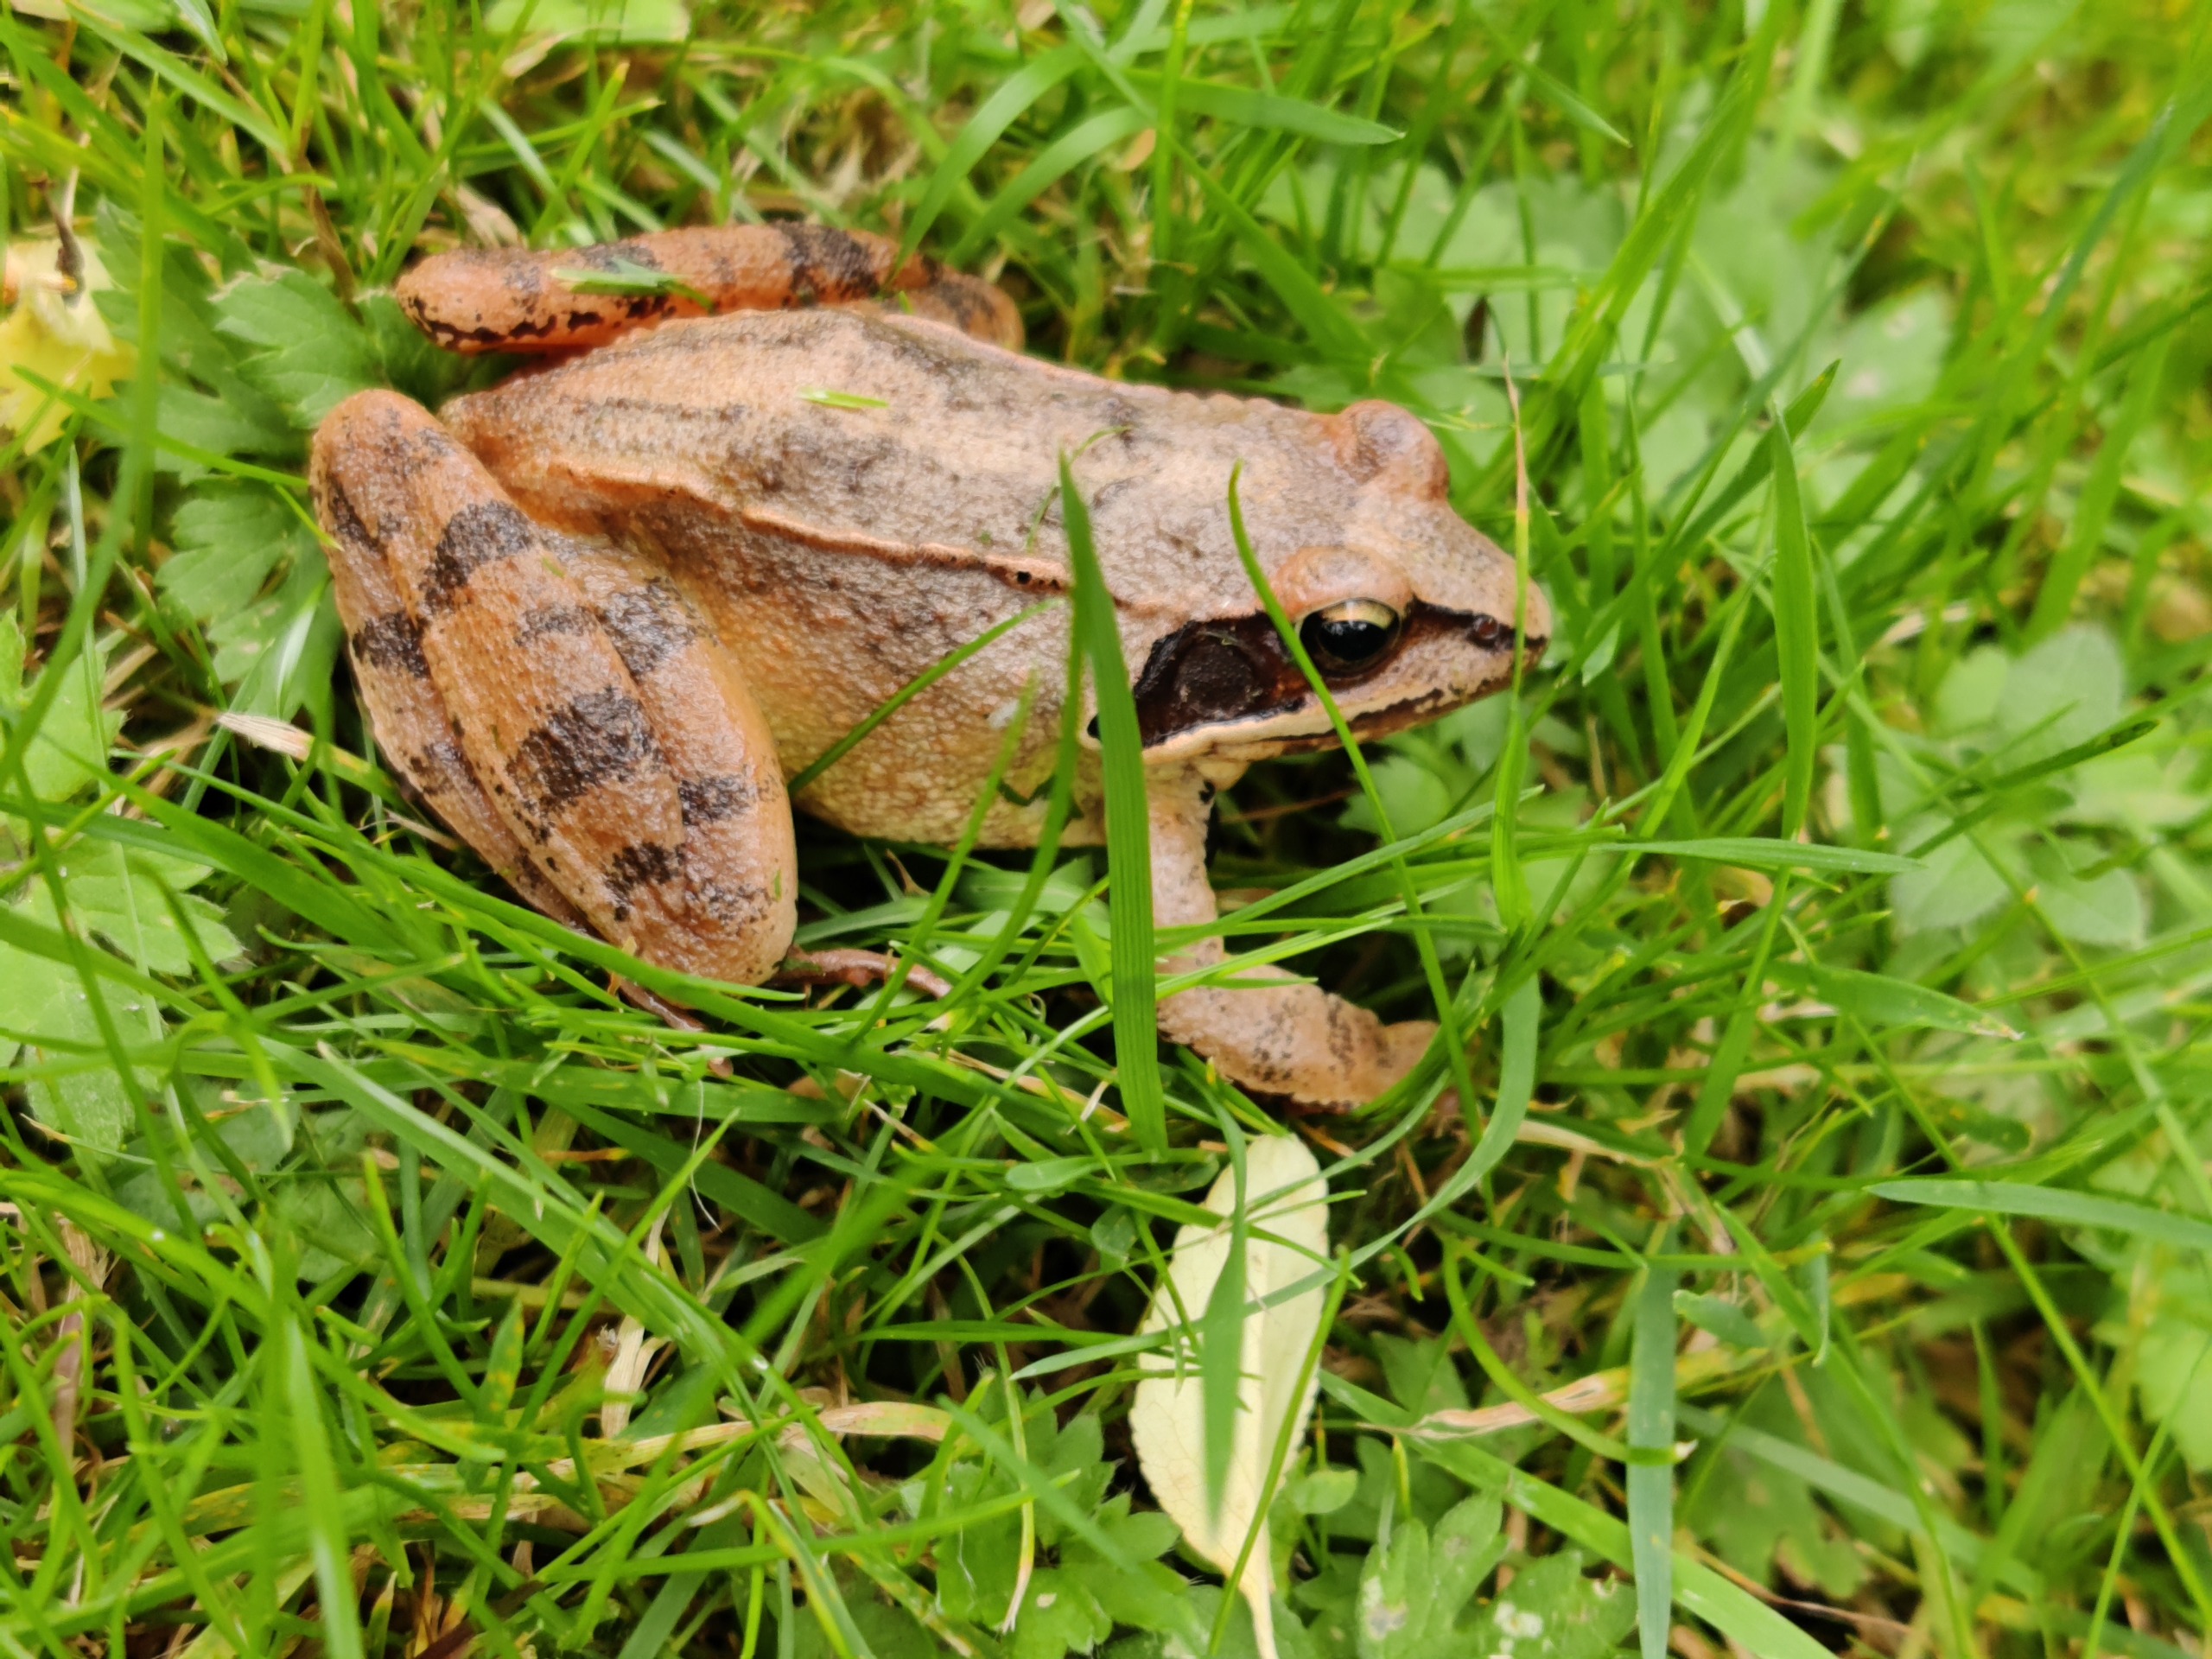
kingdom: Animalia
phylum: Chordata
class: Amphibia
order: Anura
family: Ranidae
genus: Rana
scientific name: Rana dalmatina
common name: Springfrø
